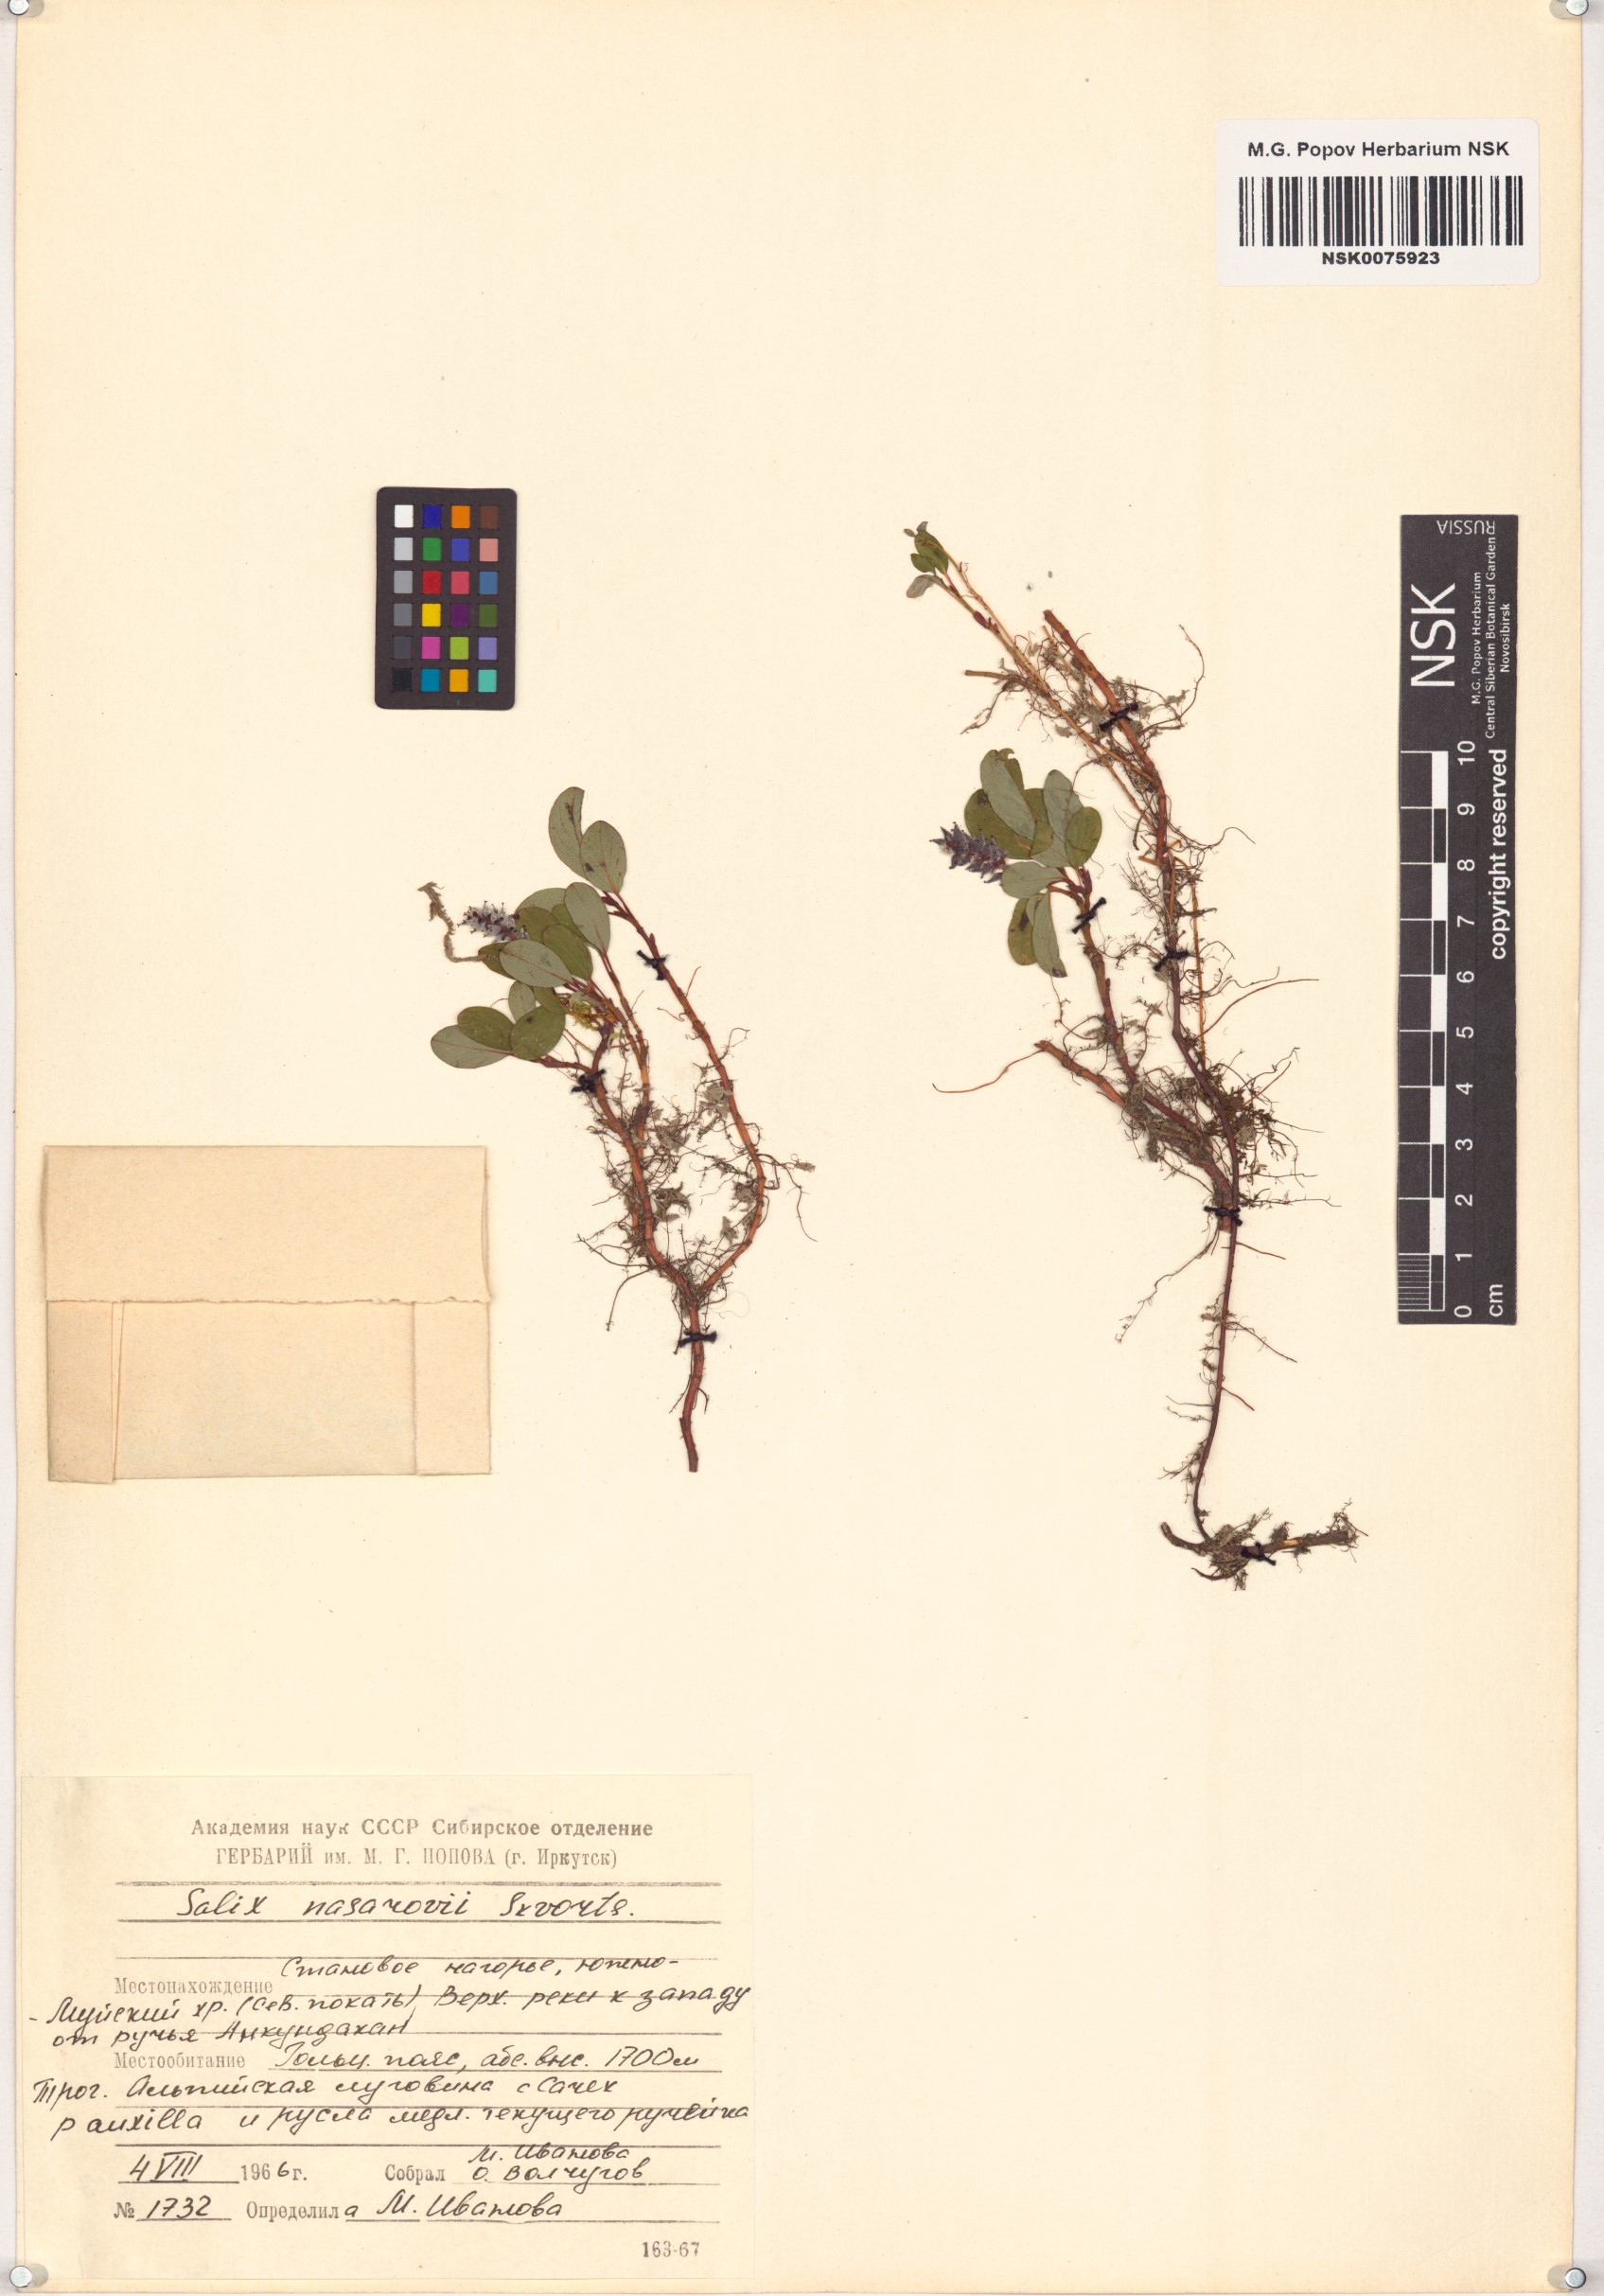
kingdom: Plantae
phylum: Tracheophyta
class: Magnoliopsida
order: Malpighiales
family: Salicaceae
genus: Salix
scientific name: Salix nasarovii
